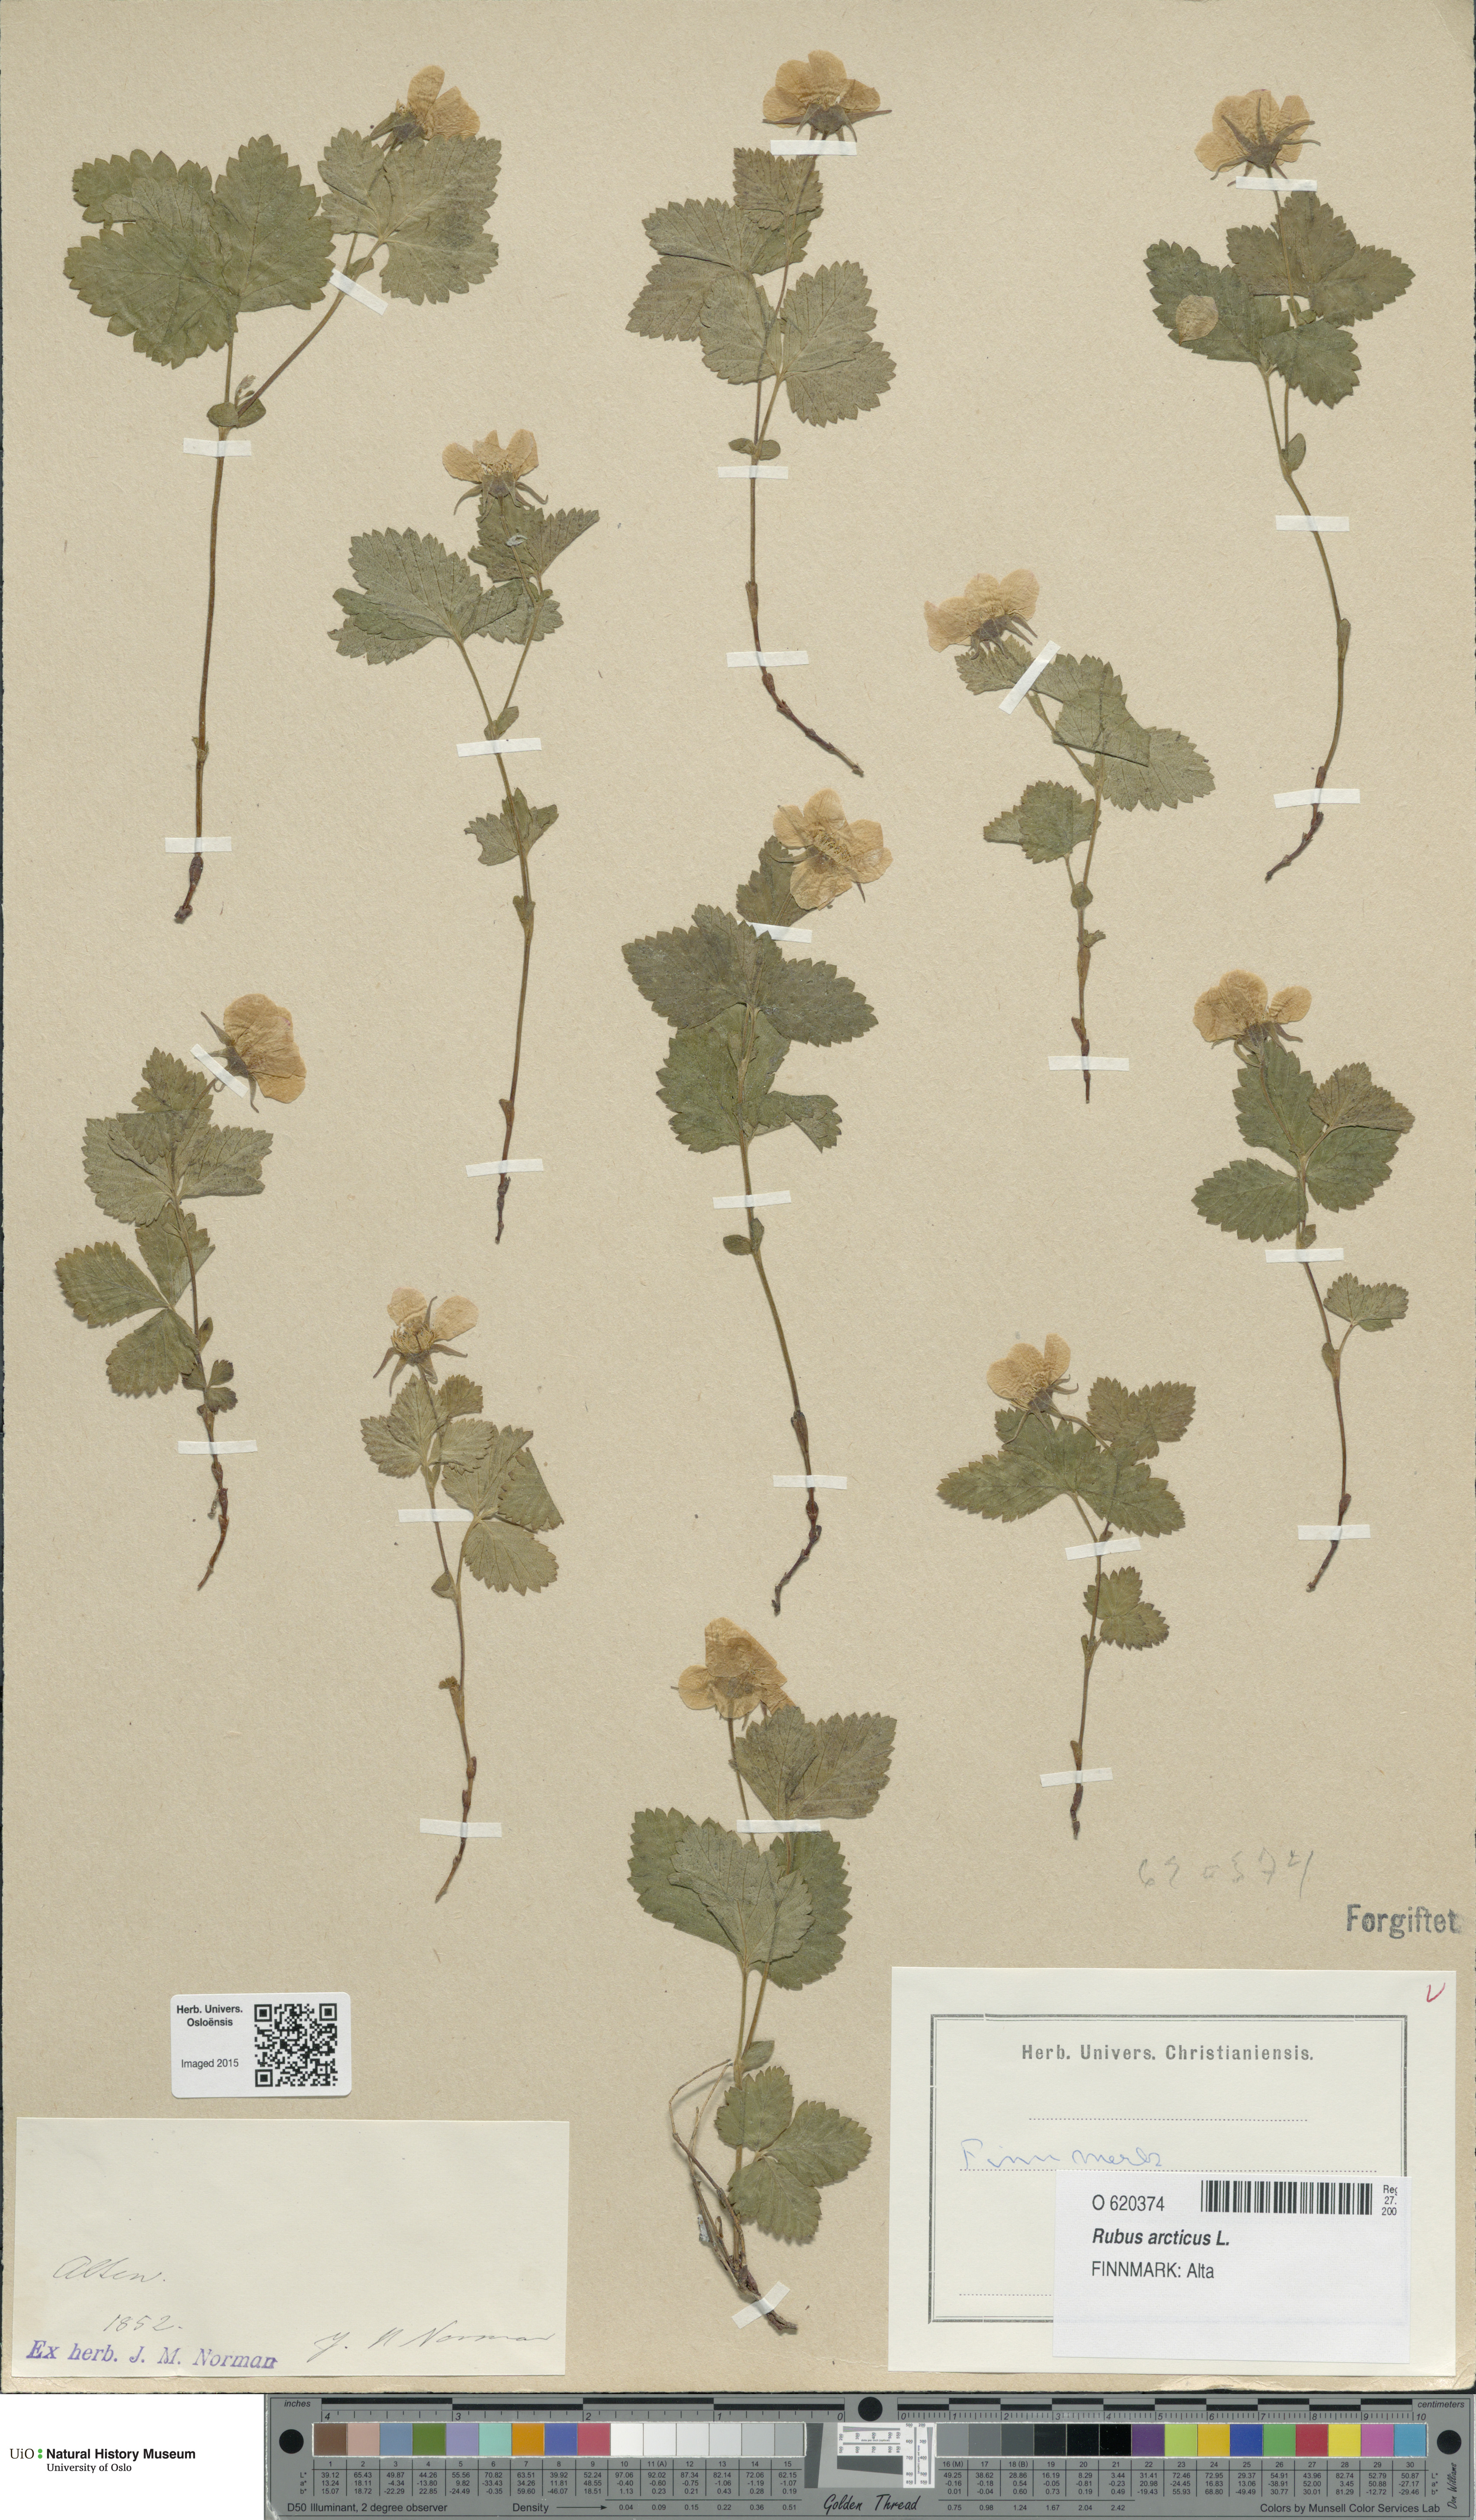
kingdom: Plantae
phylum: Tracheophyta
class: Magnoliopsida
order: Rosales
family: Rosaceae
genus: Rubus
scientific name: Rubus arcticus
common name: Arctic bramble
